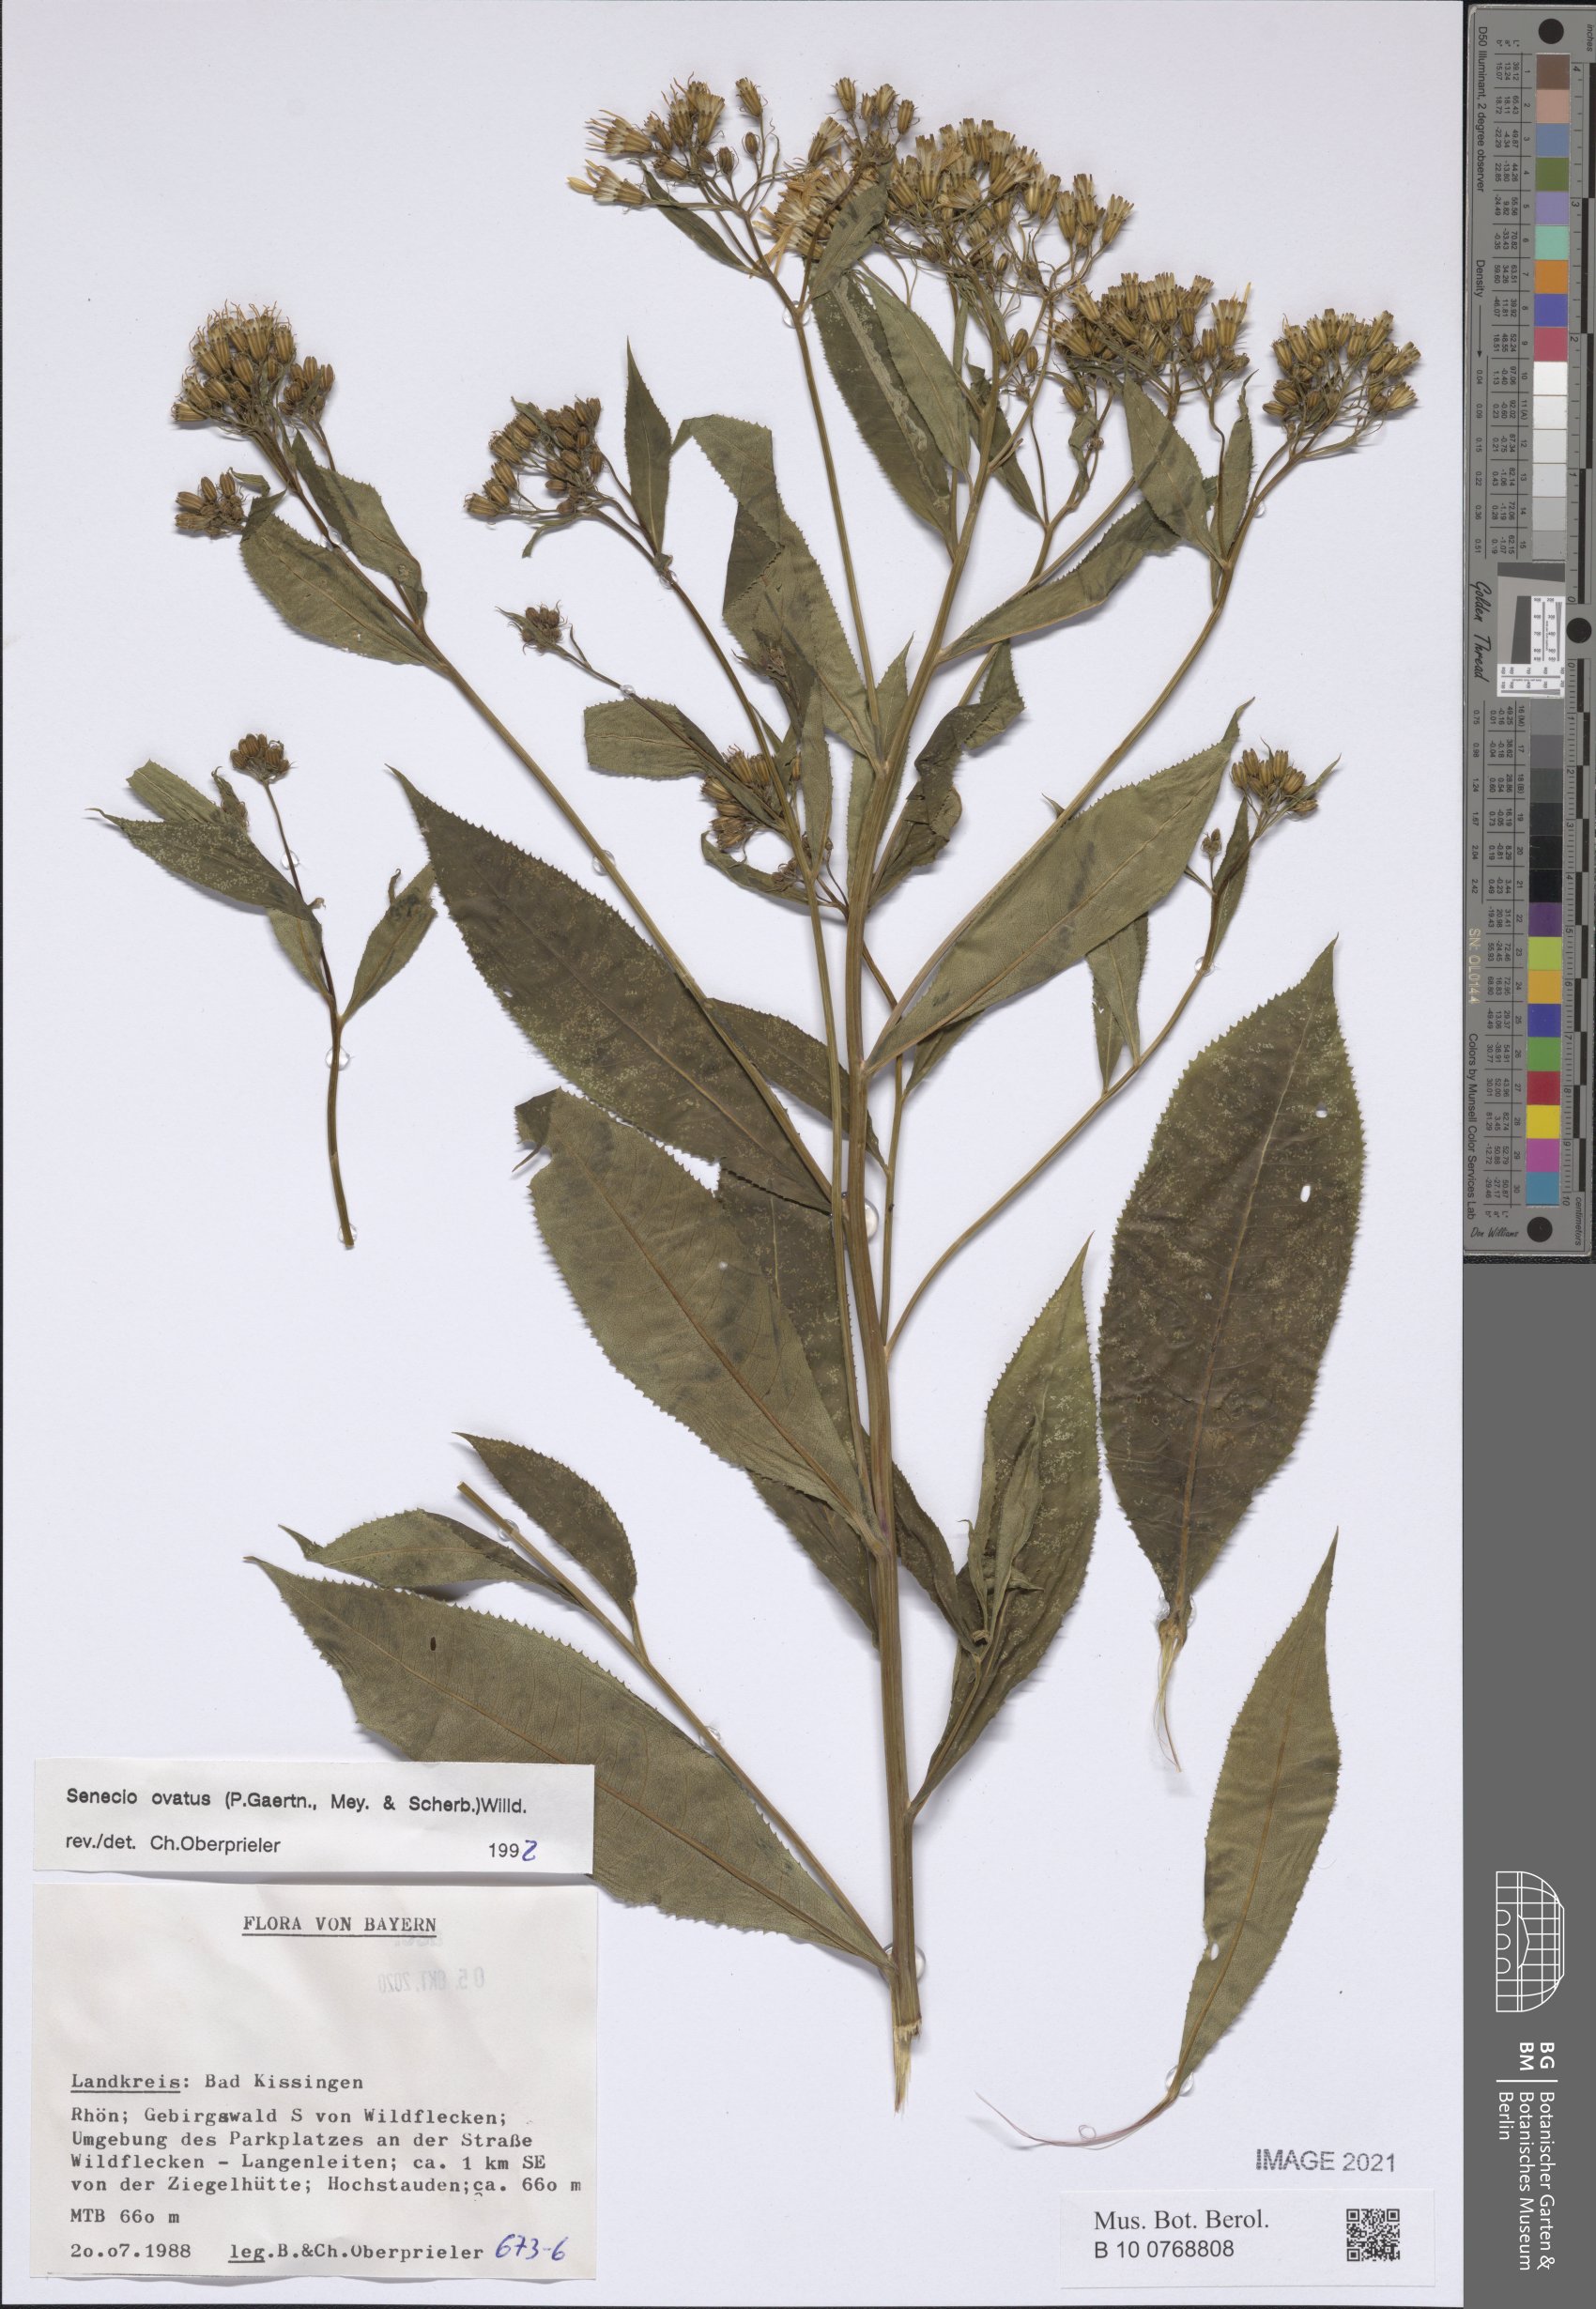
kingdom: Plantae
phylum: Tracheophyta
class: Magnoliopsida
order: Asterales
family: Asteraceae
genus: Senecio
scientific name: Senecio ovatus
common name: Wood ragwort
